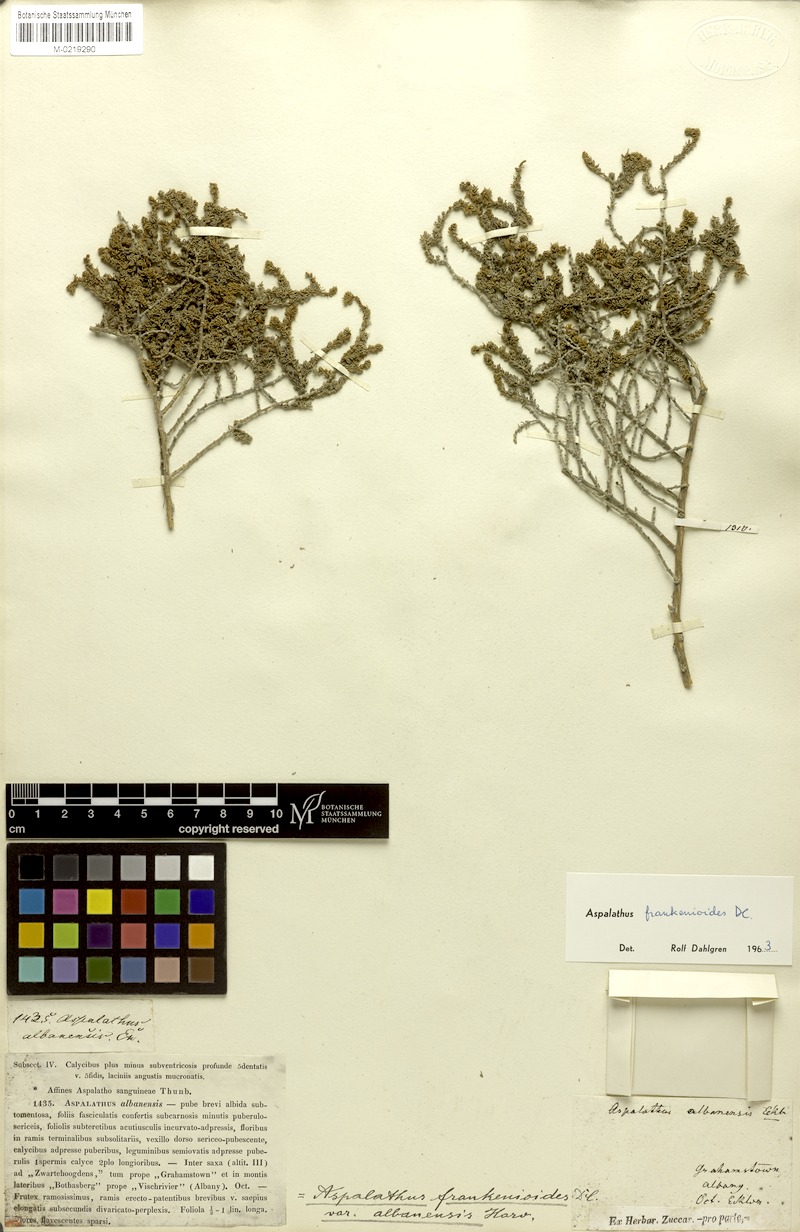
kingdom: Plantae
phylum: Tracheophyta
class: Magnoliopsida
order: Fabales
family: Fabaceae
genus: Aspalathus
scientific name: Aspalathus frankenioides
